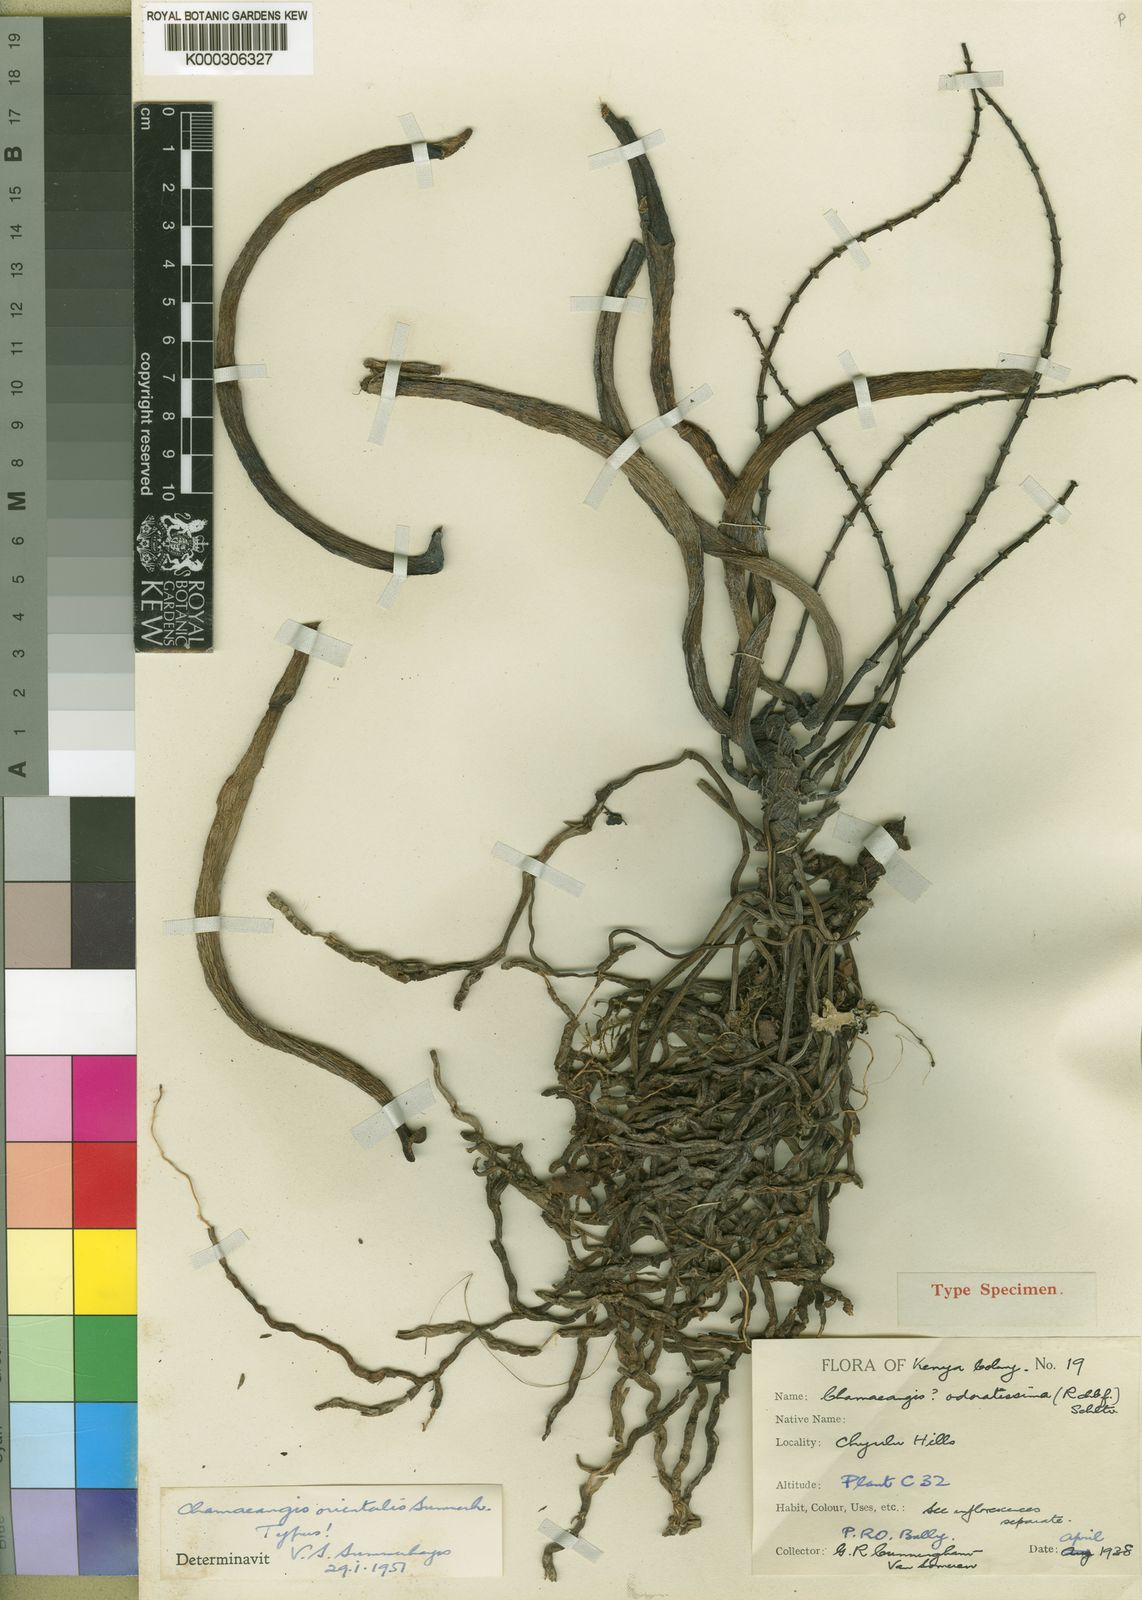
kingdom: Plantae
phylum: Tracheophyta
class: Liliopsida
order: Asparagales
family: Orchidaceae
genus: Diaphananthe
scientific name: Diaphananthe sarcophylla
